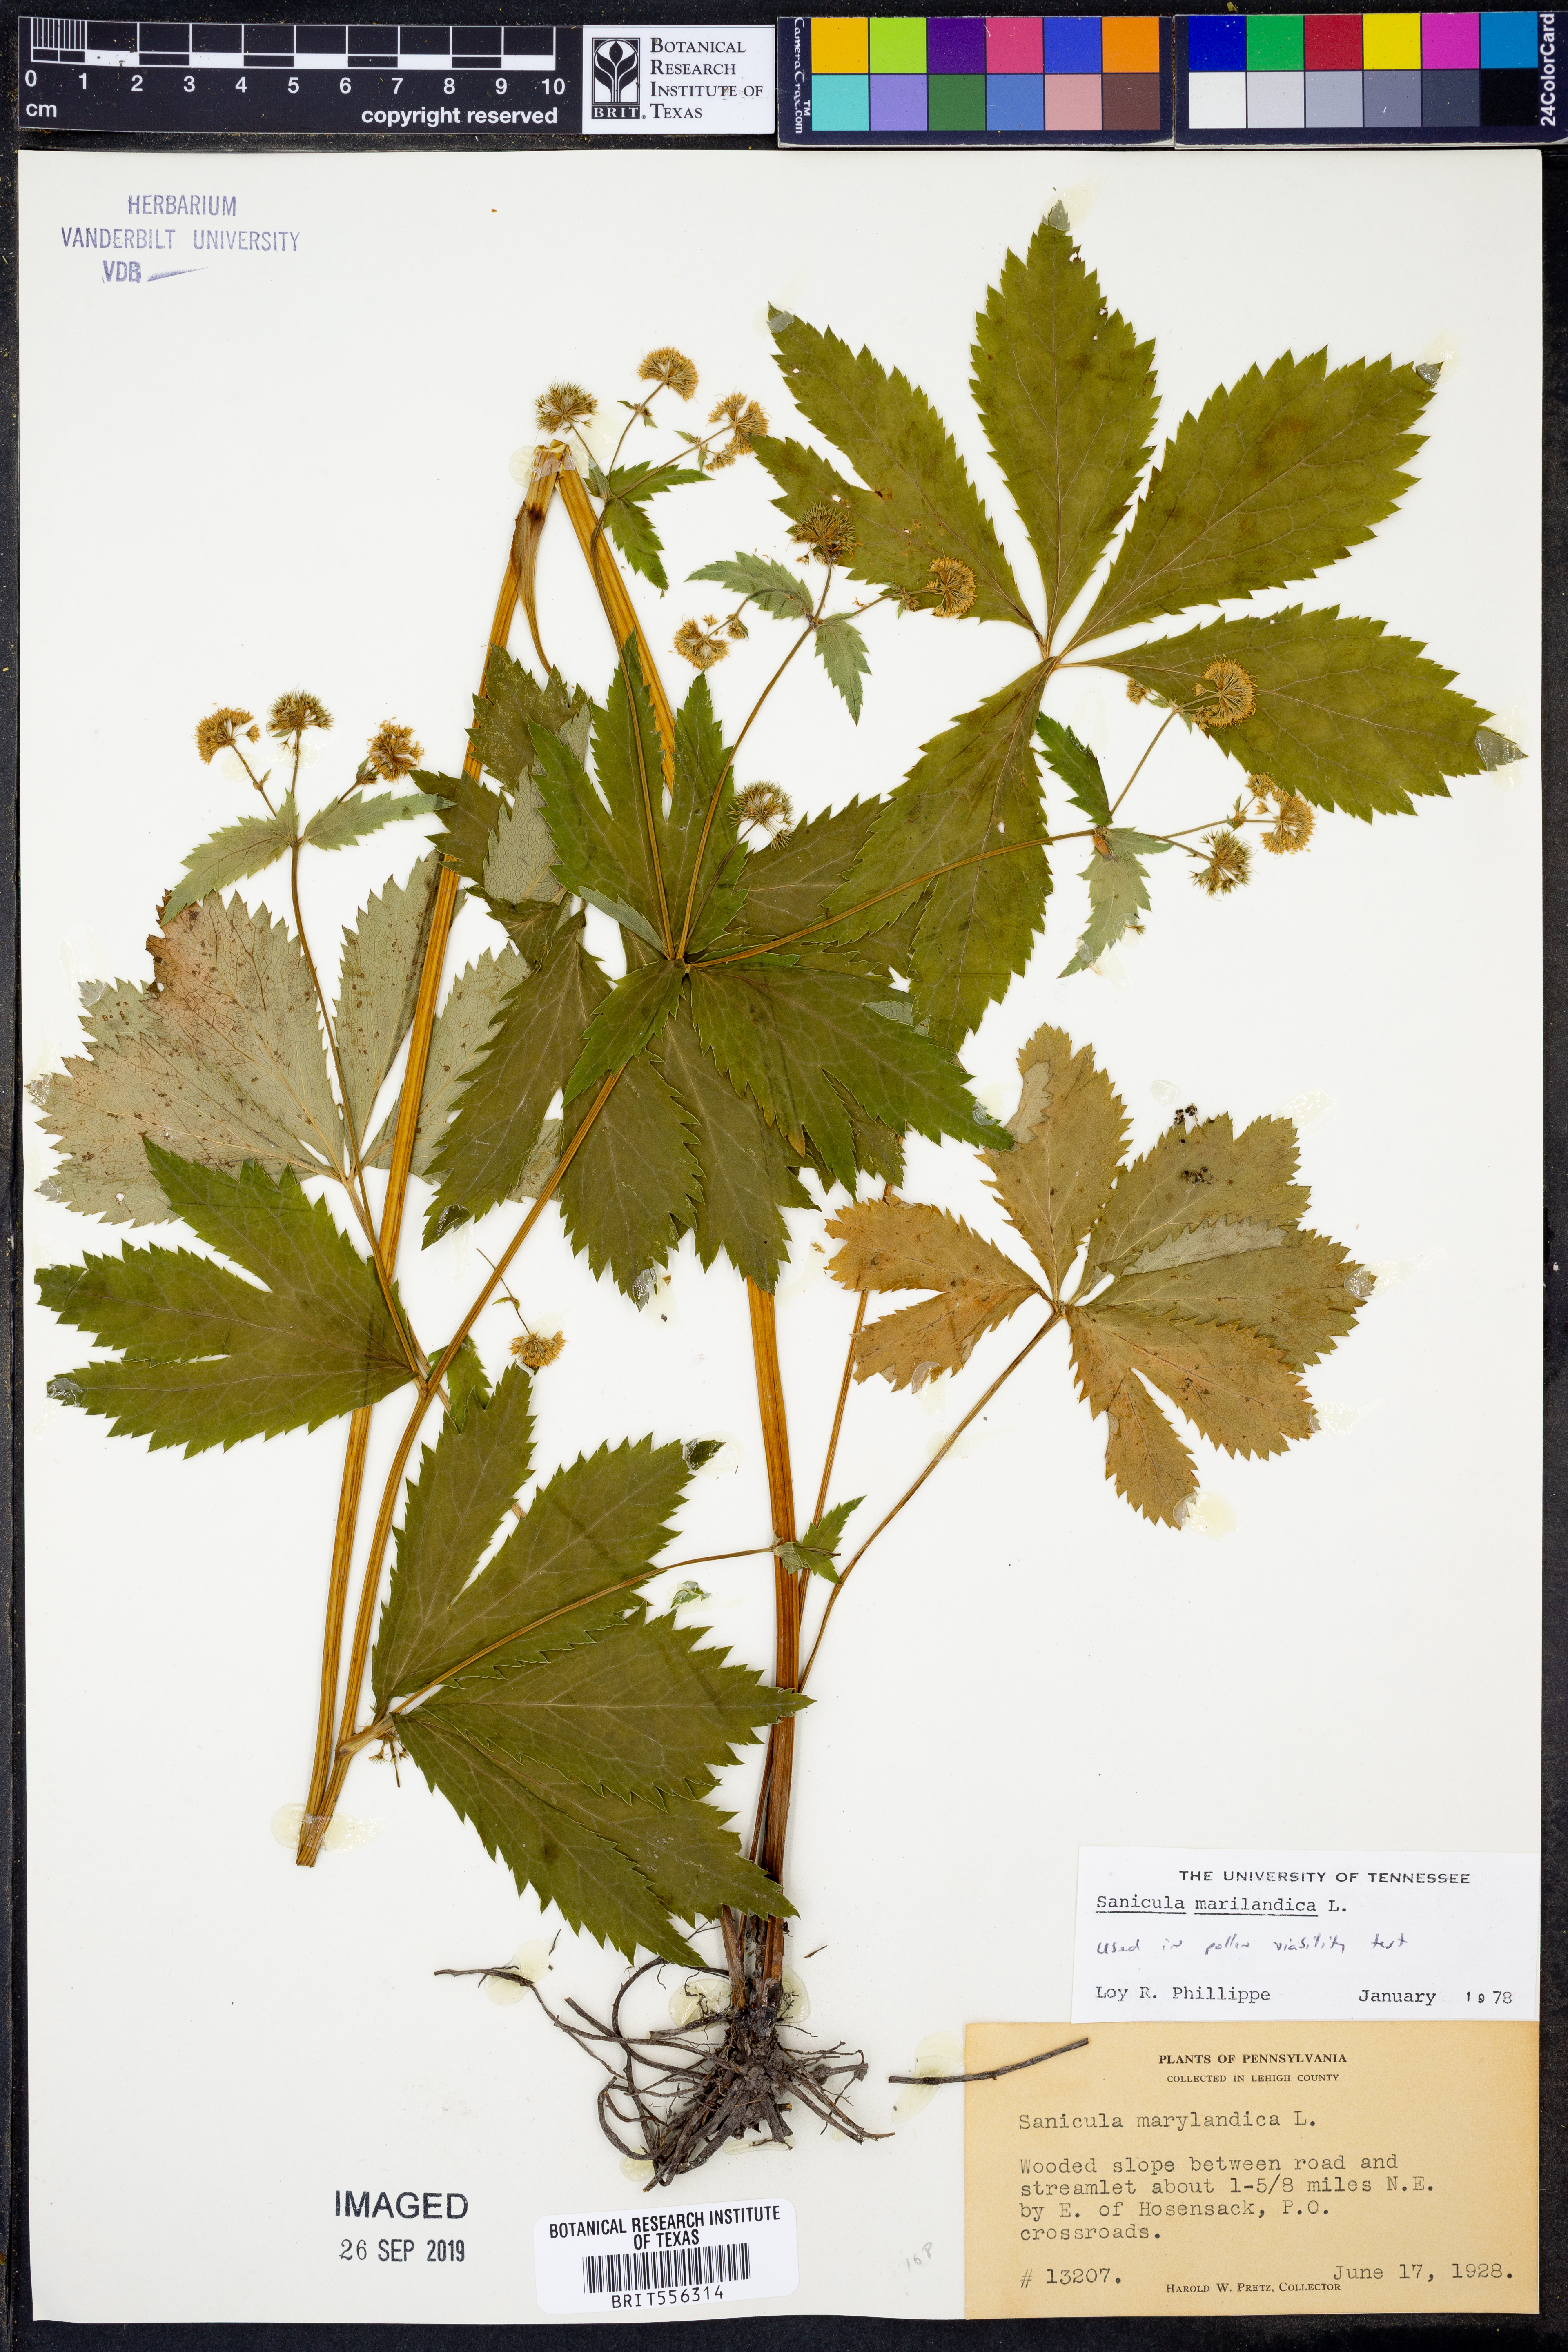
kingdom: Plantae
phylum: Tracheophyta
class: Magnoliopsida
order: Apiales
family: Apiaceae
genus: Sanicula
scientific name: Sanicula marilandica
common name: Black snakeroot
